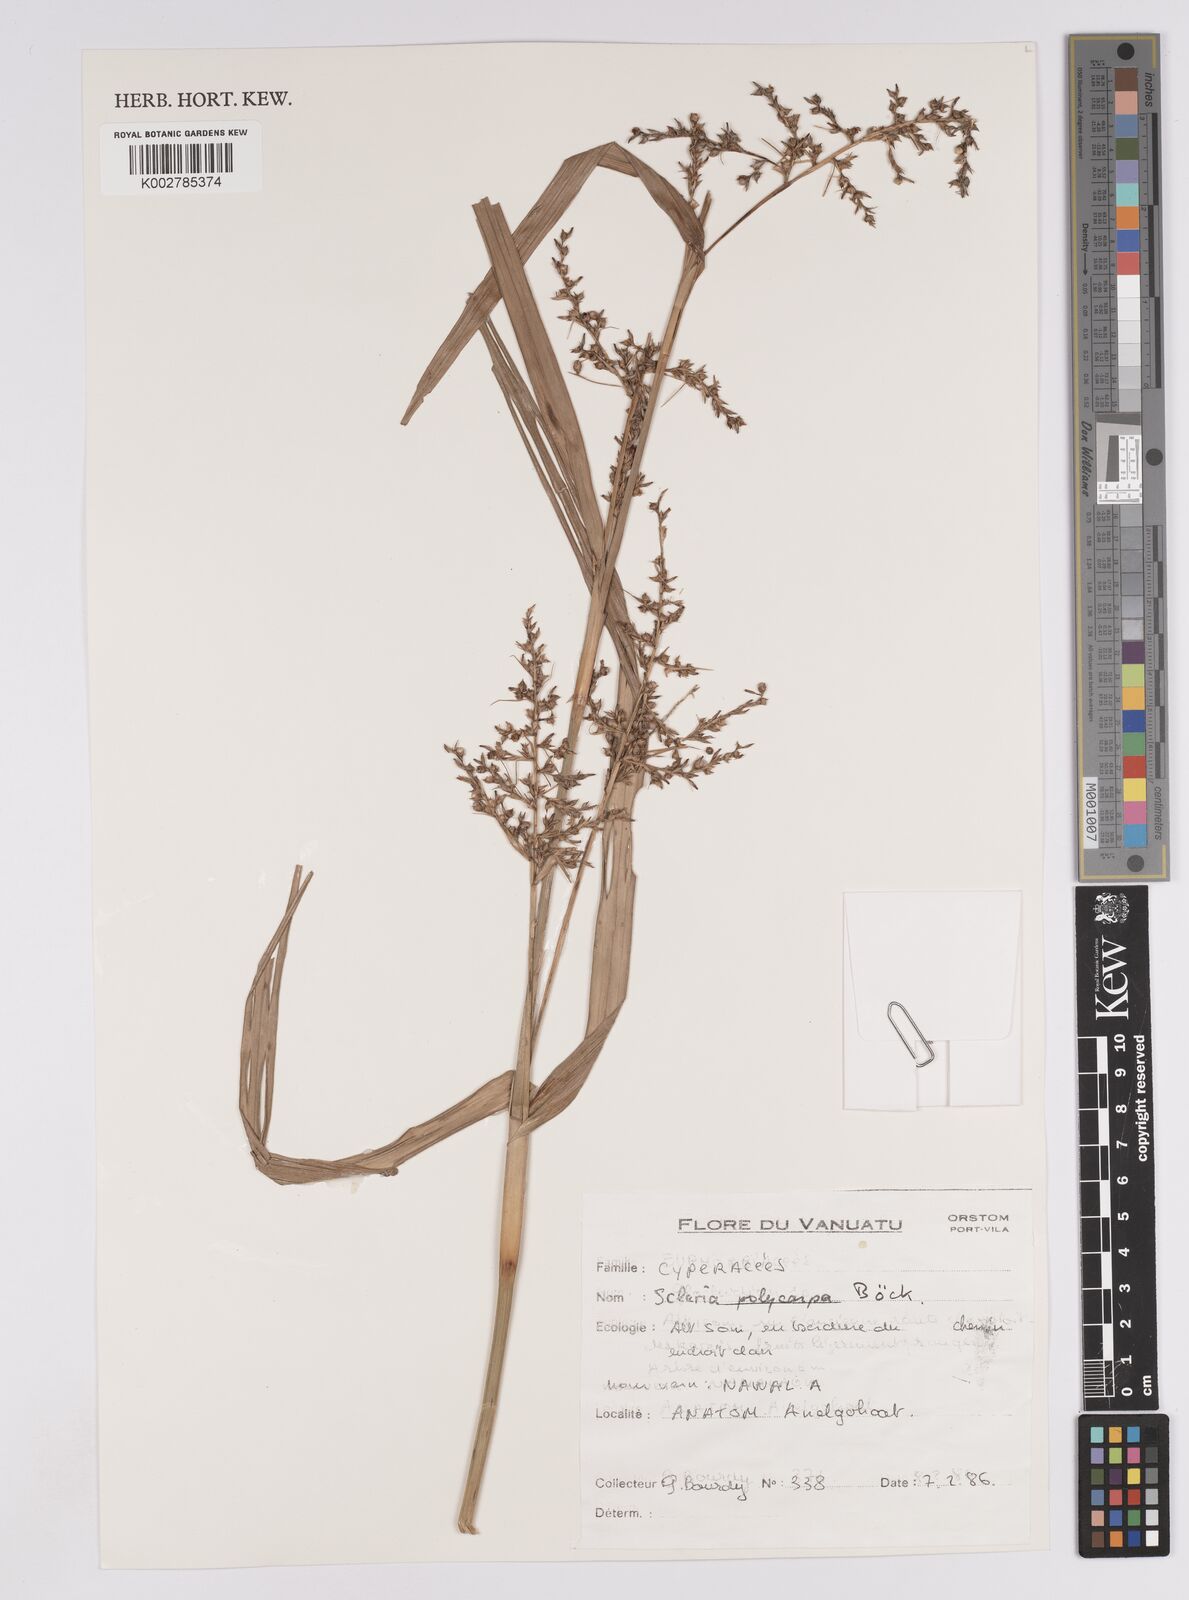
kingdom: Plantae
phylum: Tracheophyta
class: Liliopsida
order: Poales
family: Cyperaceae
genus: Scleria
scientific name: Scleria polycarpa
